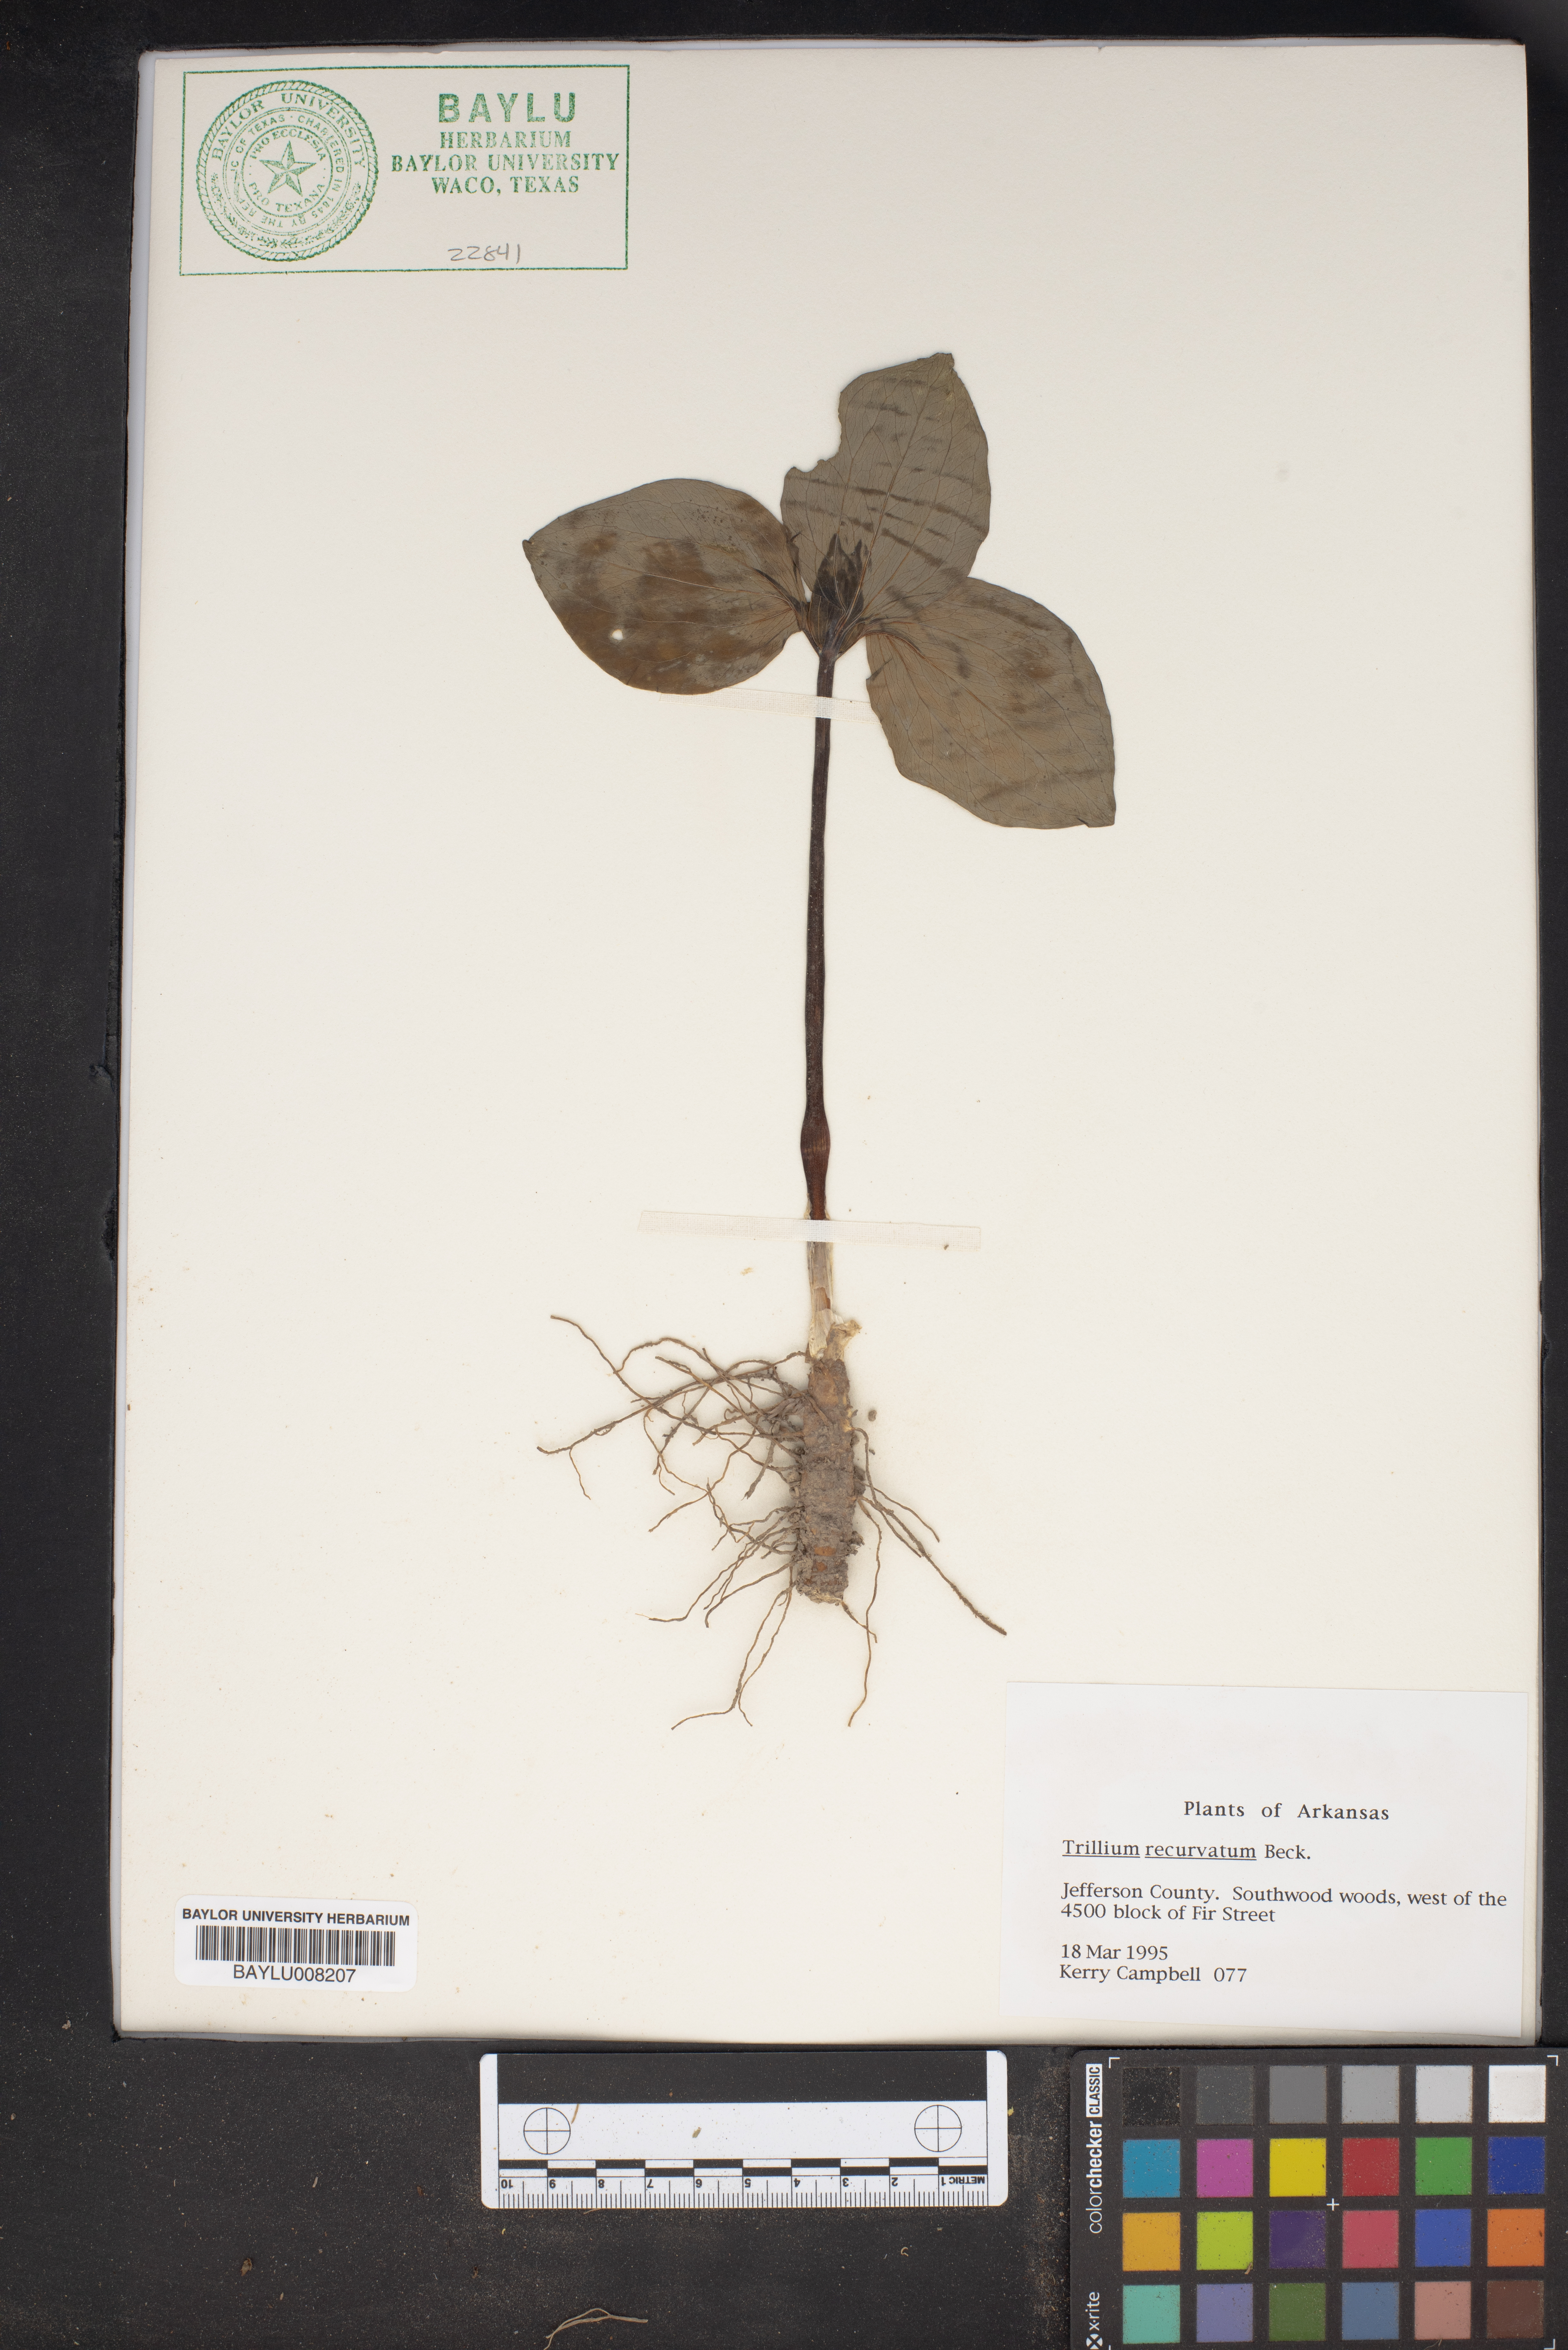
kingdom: Plantae
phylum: Tracheophyta
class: Liliopsida
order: Liliales
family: Melanthiaceae
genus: Trillium
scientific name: Trillium recurvatum
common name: Bloody butcher
